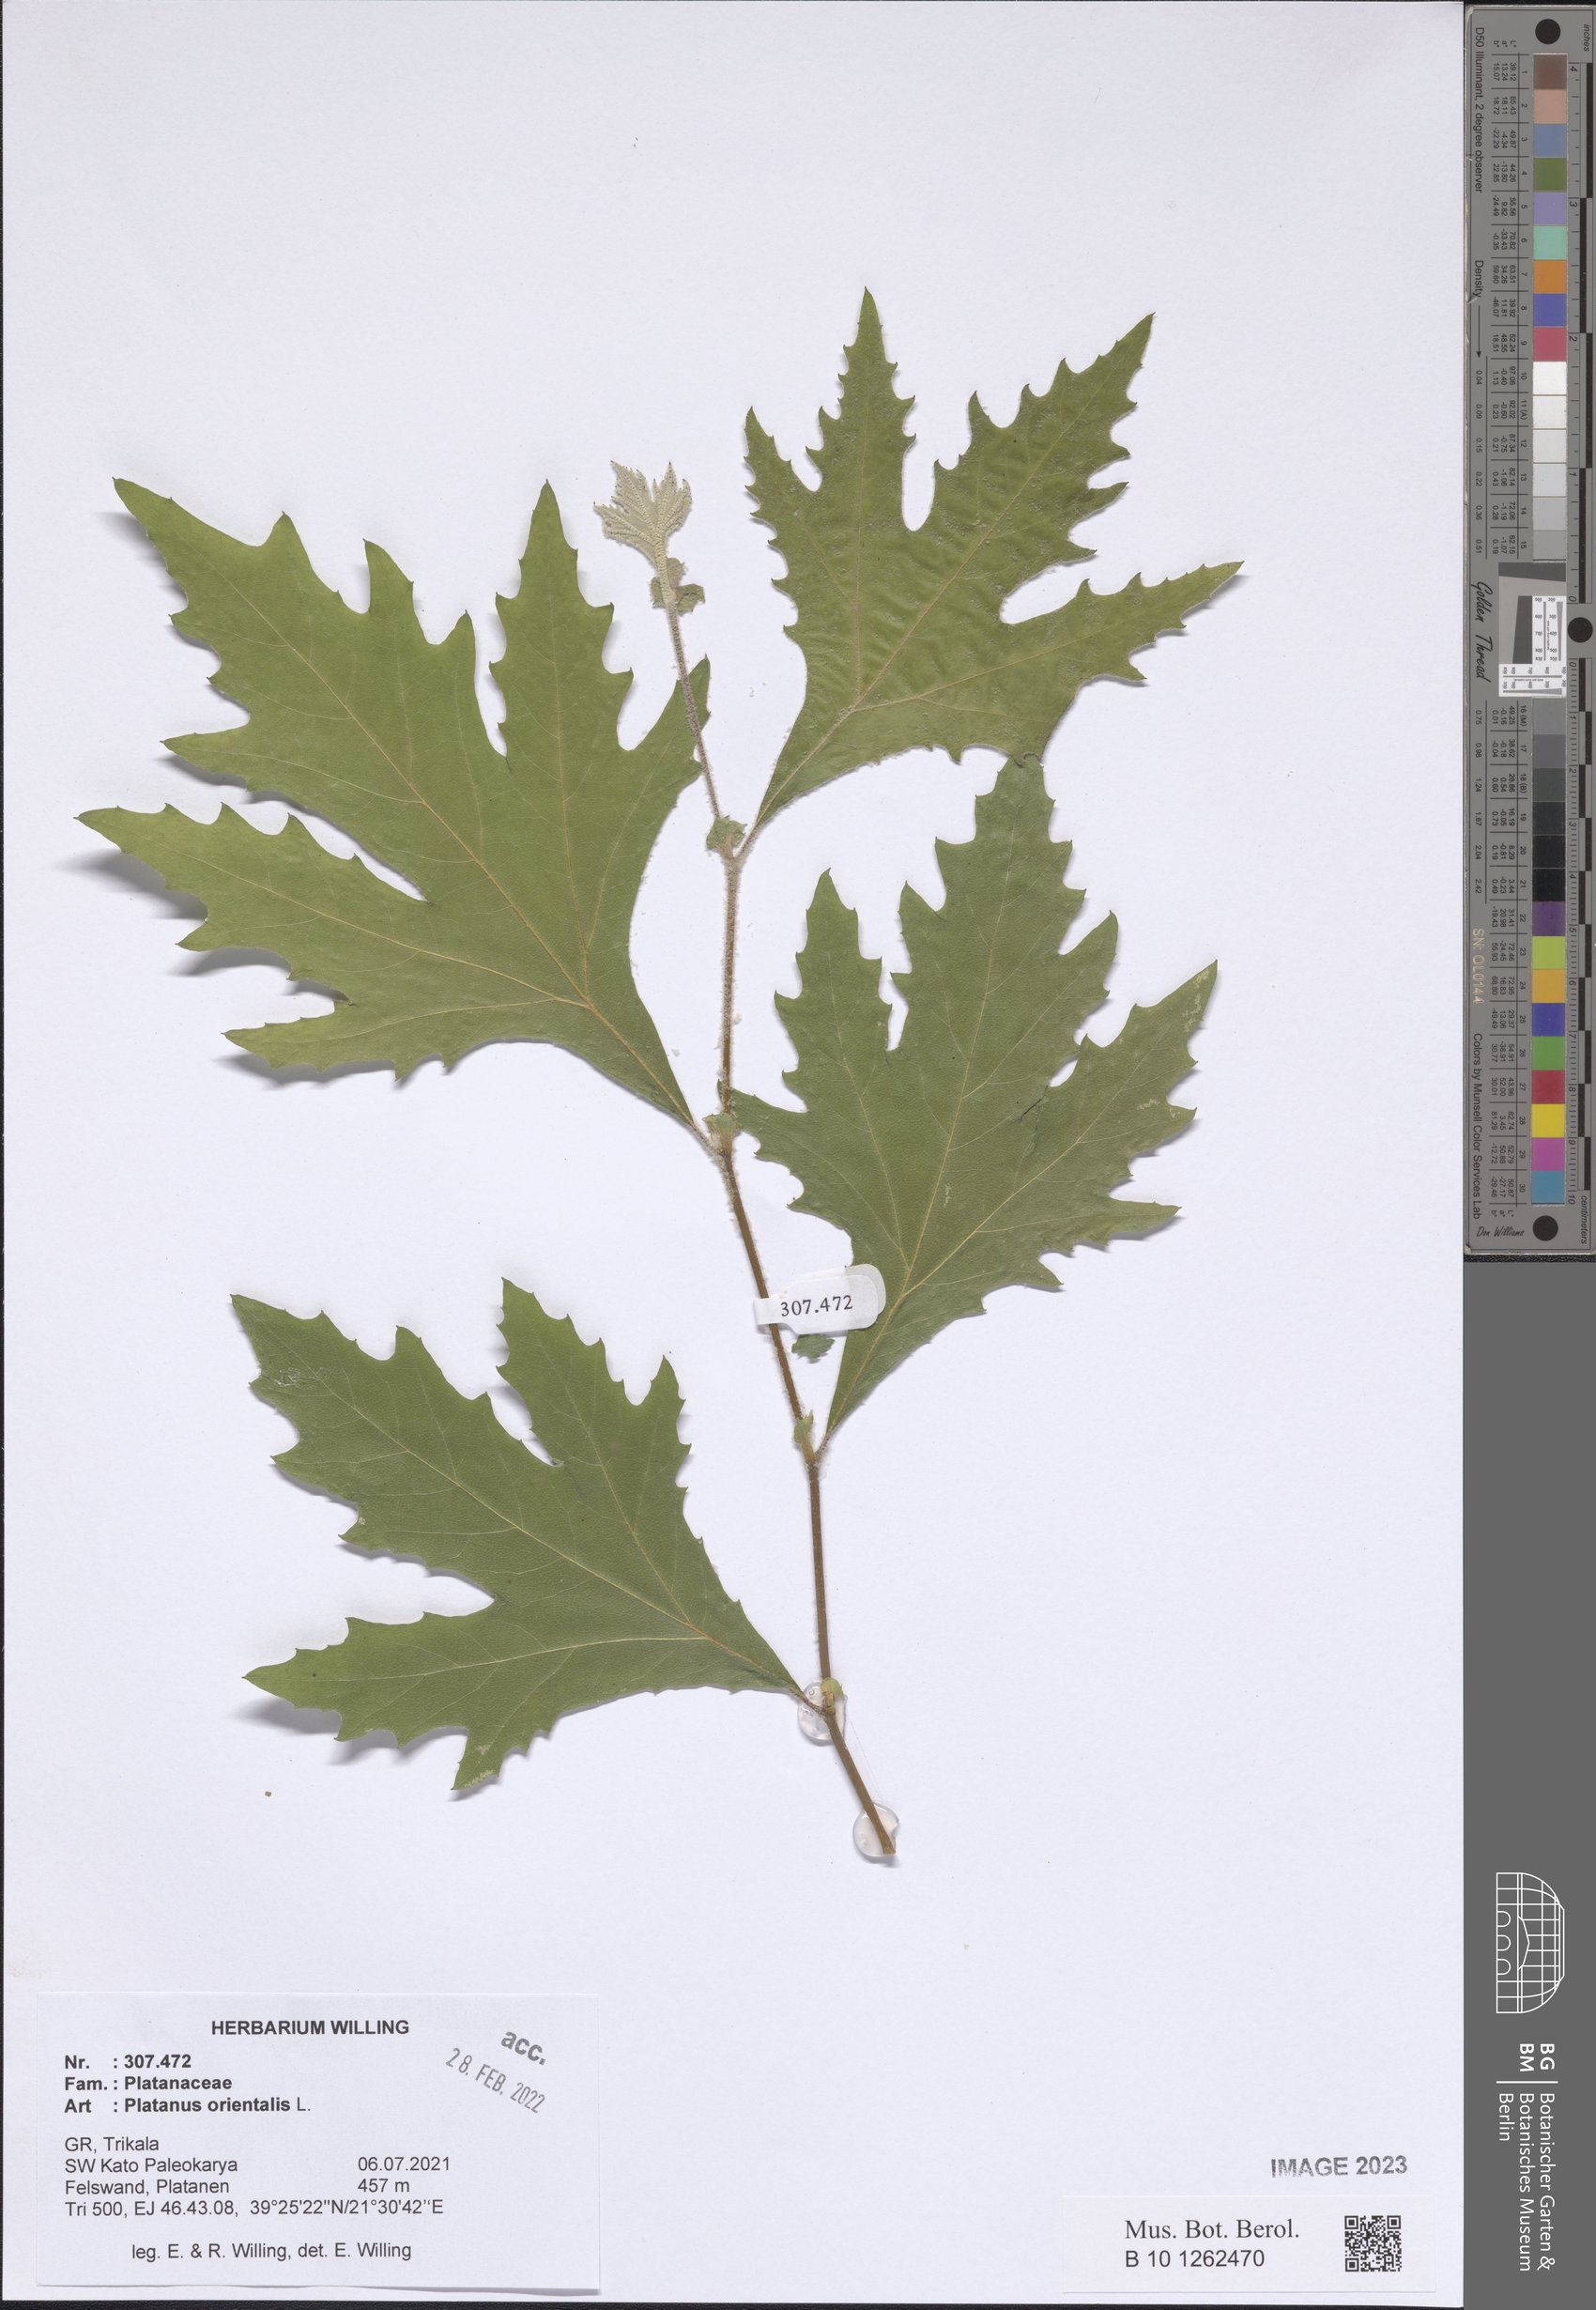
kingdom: Plantae
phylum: Tracheophyta
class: Magnoliopsida
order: Proteales
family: Platanaceae
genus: Platanus
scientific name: Platanus orientalis
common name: Oriental plane
